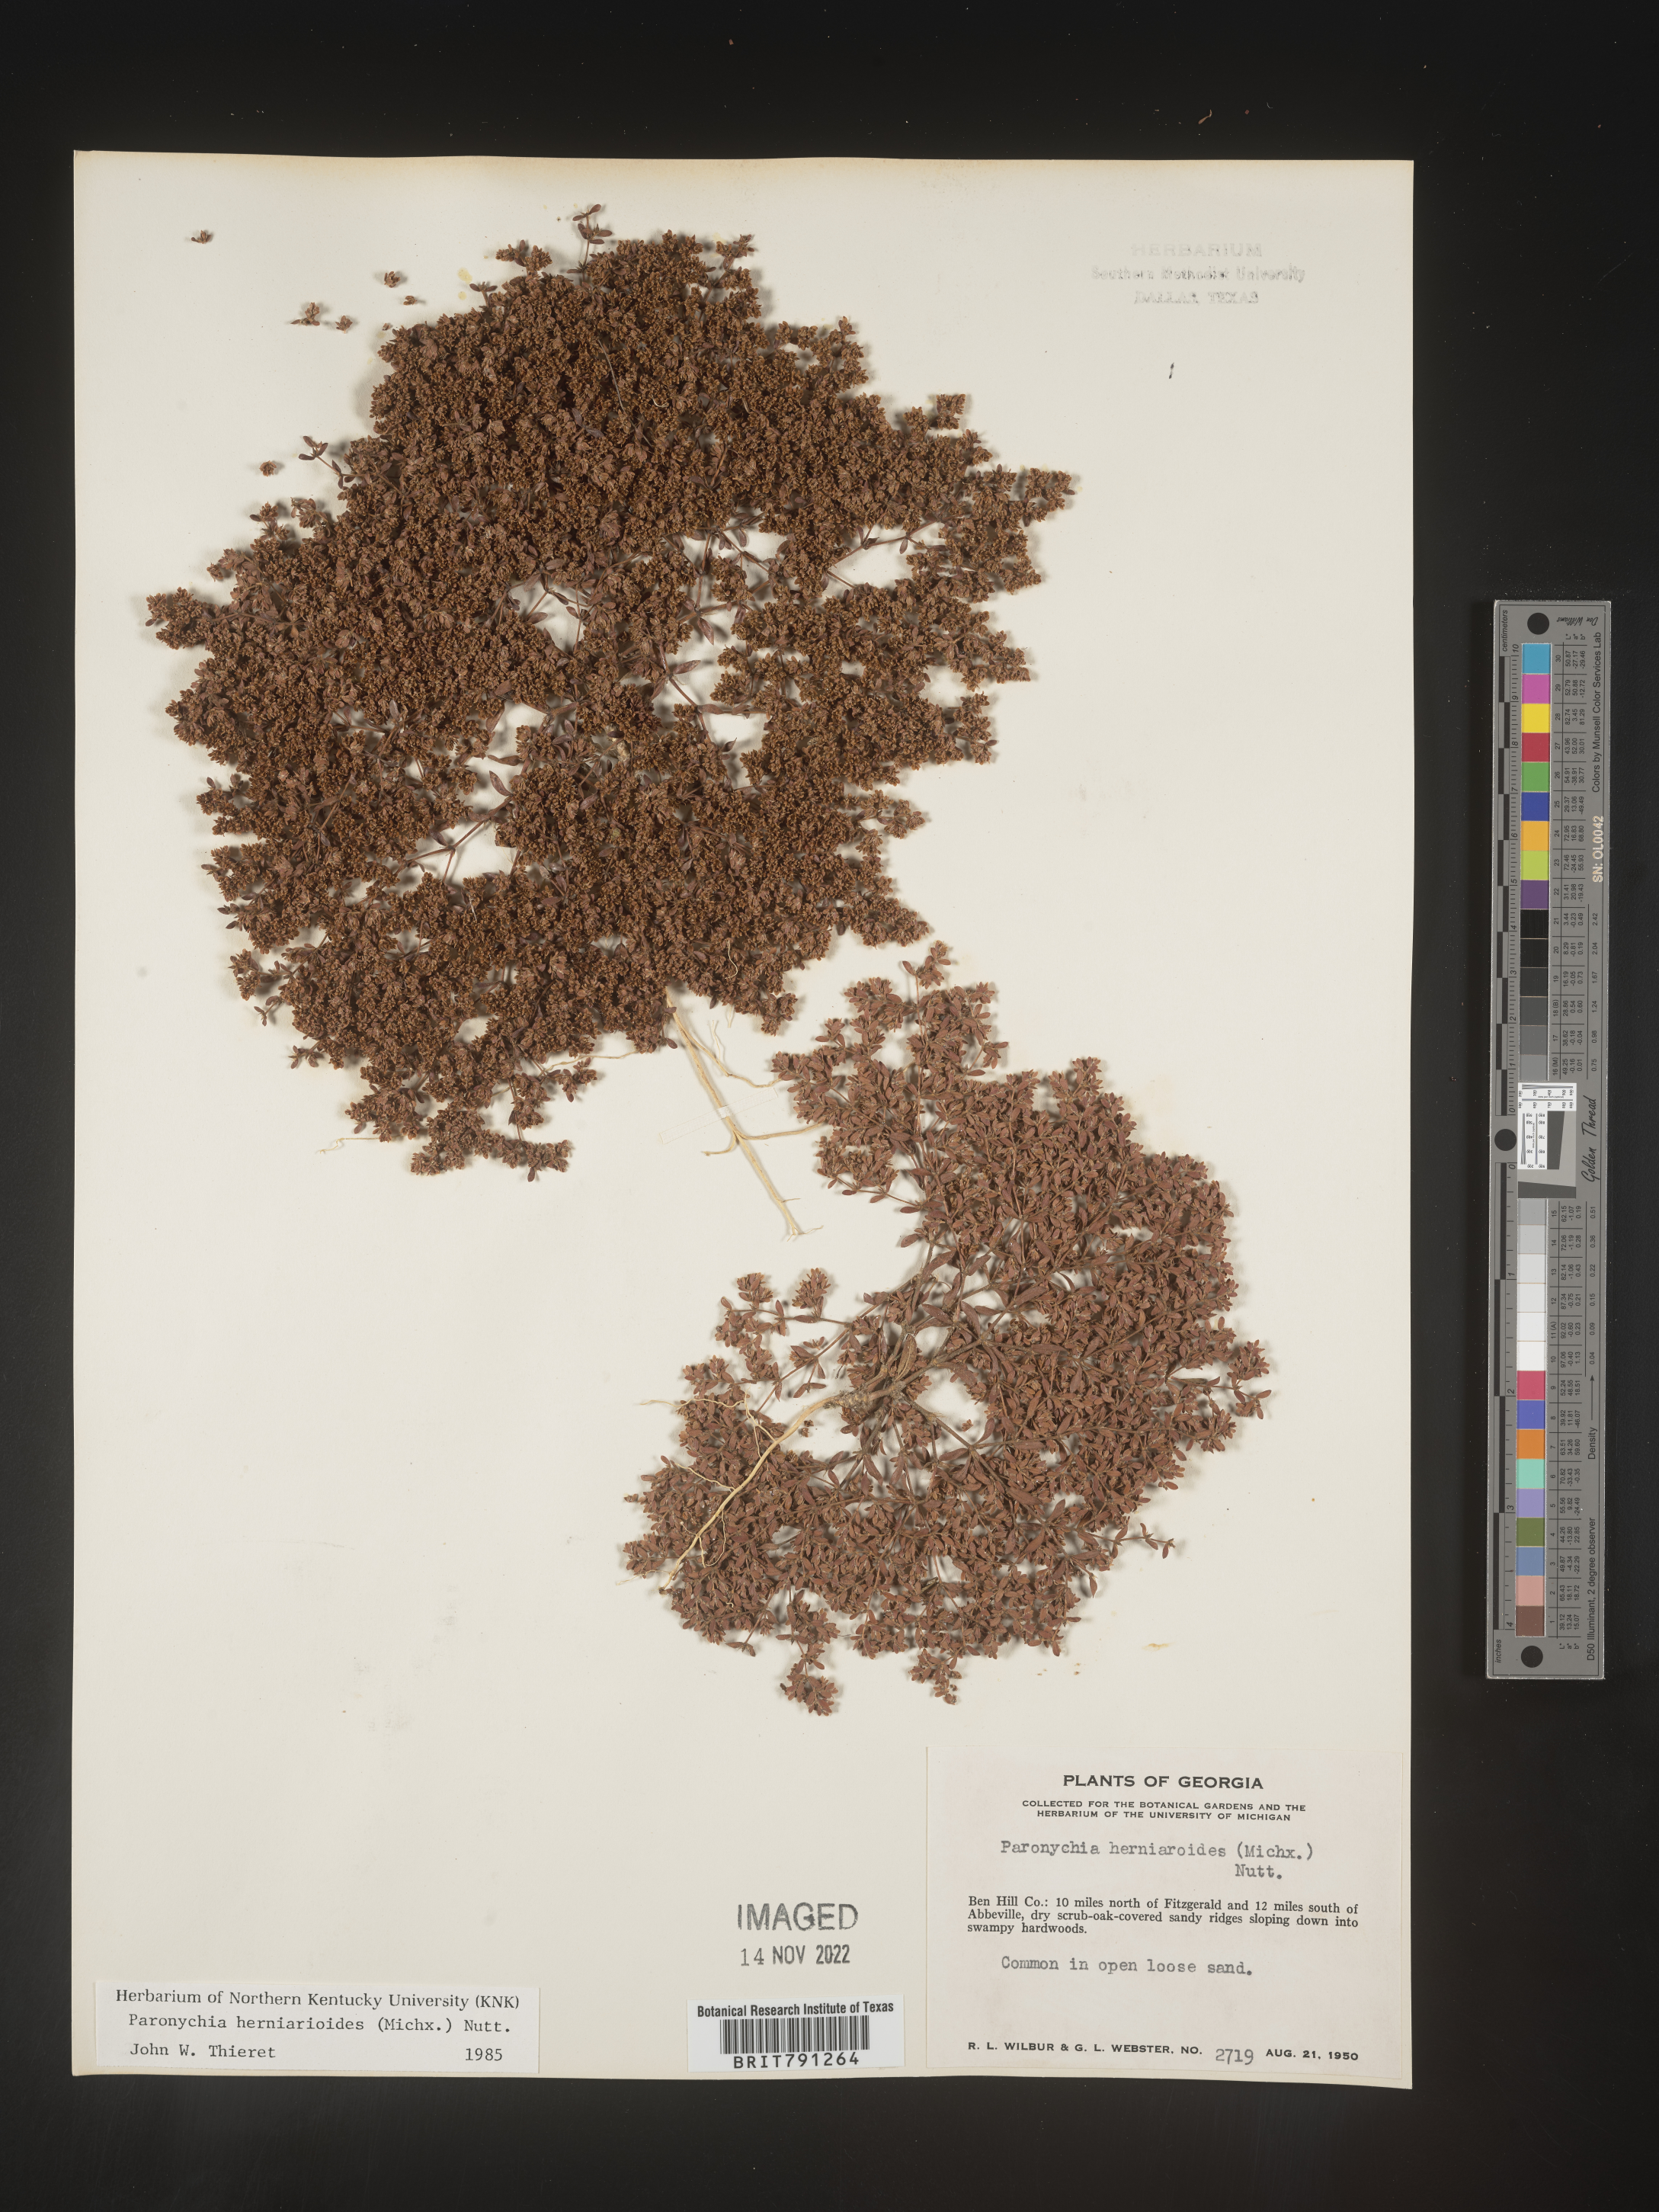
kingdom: Plantae
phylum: Tracheophyta
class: Magnoliopsida
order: Caryophyllales
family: Caryophyllaceae
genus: Paronychia
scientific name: Paronychia herniarioides
